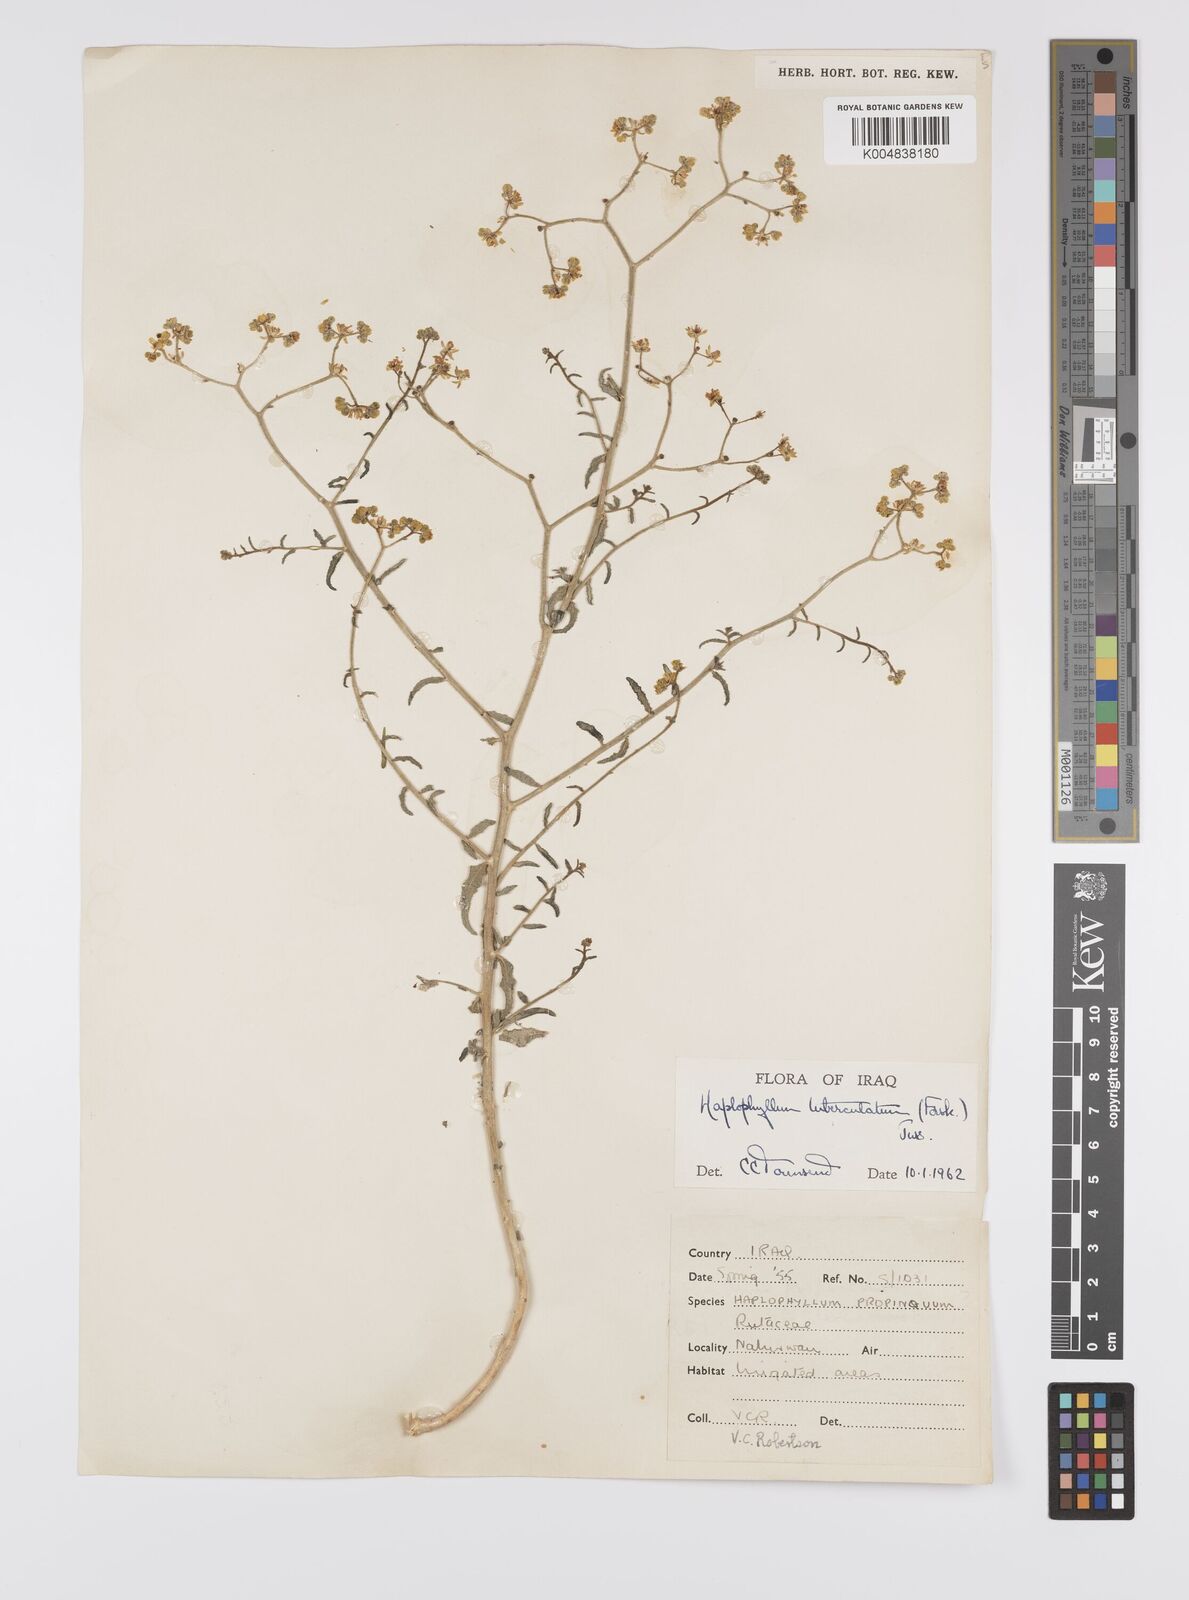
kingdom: Plantae
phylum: Tracheophyta
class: Magnoliopsida
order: Sapindales
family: Rutaceae
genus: Haplophyllum
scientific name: Haplophyllum tuberculatum
